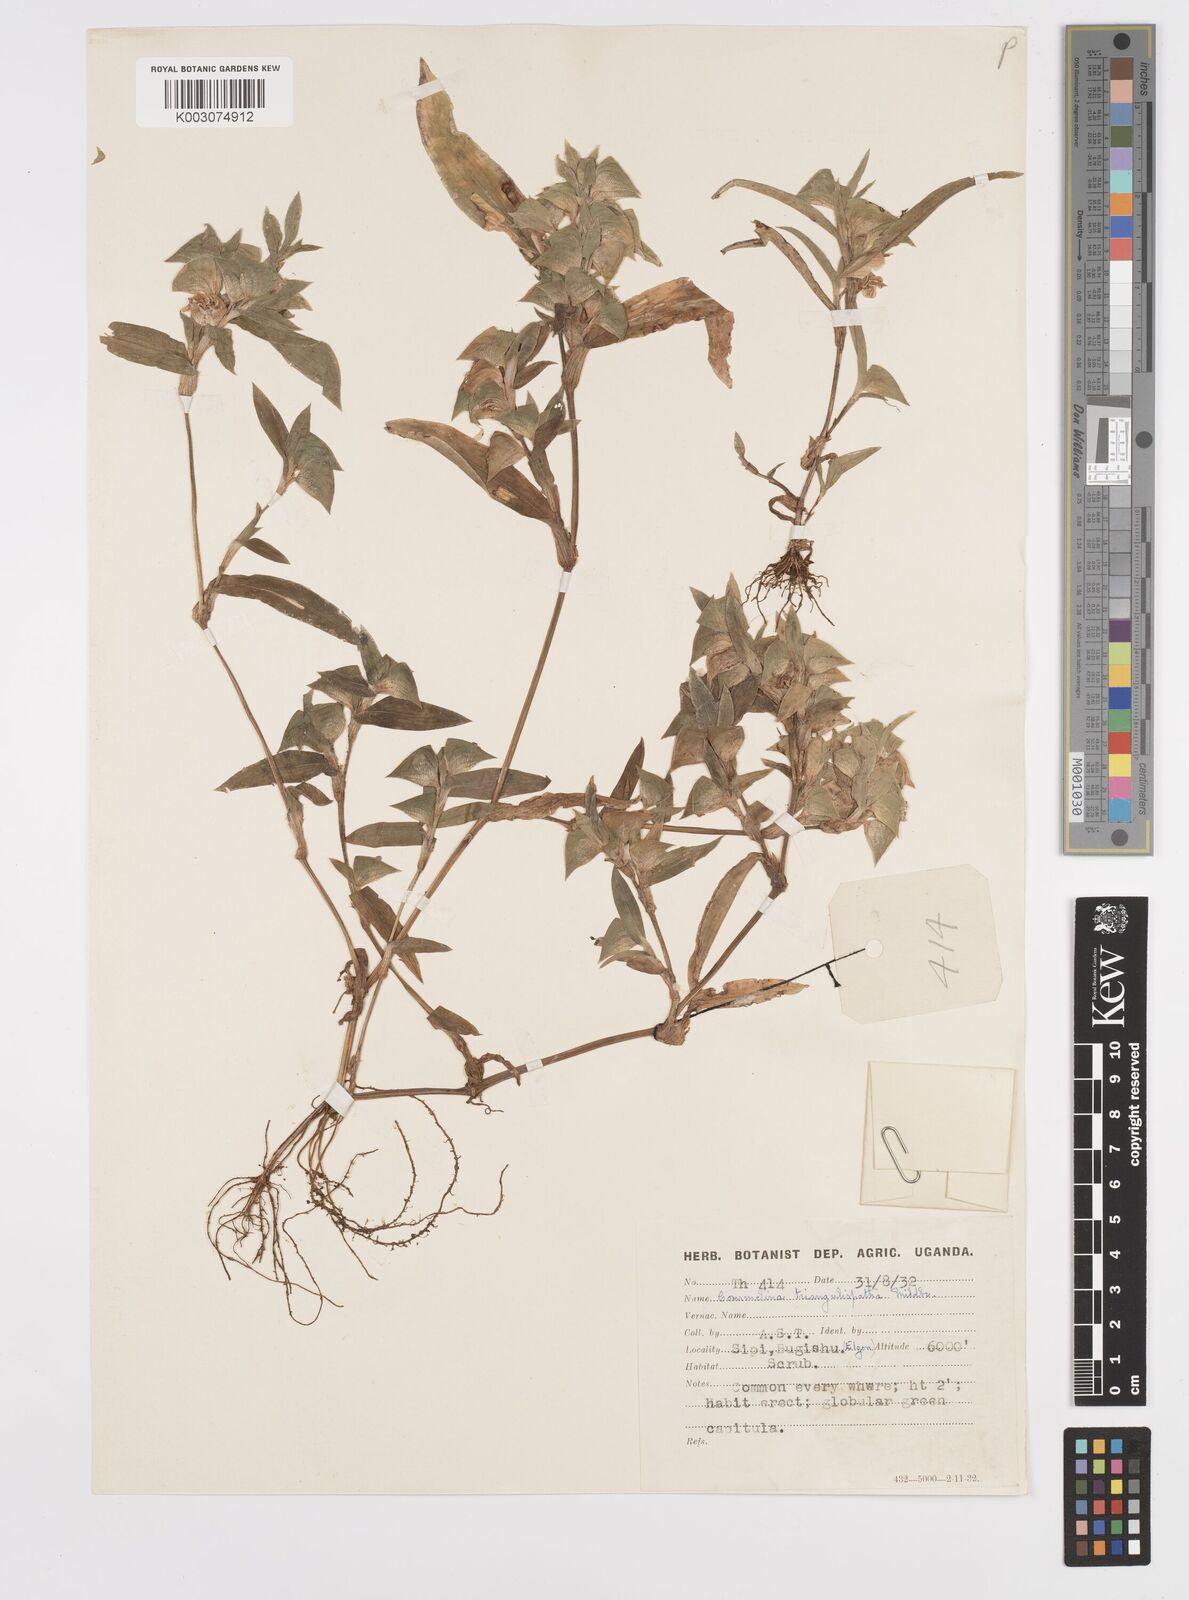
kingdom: Plantae
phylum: Tracheophyta
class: Liliopsida
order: Commelinales
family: Commelinaceae
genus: Commelina
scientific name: Commelina triangulispatha
